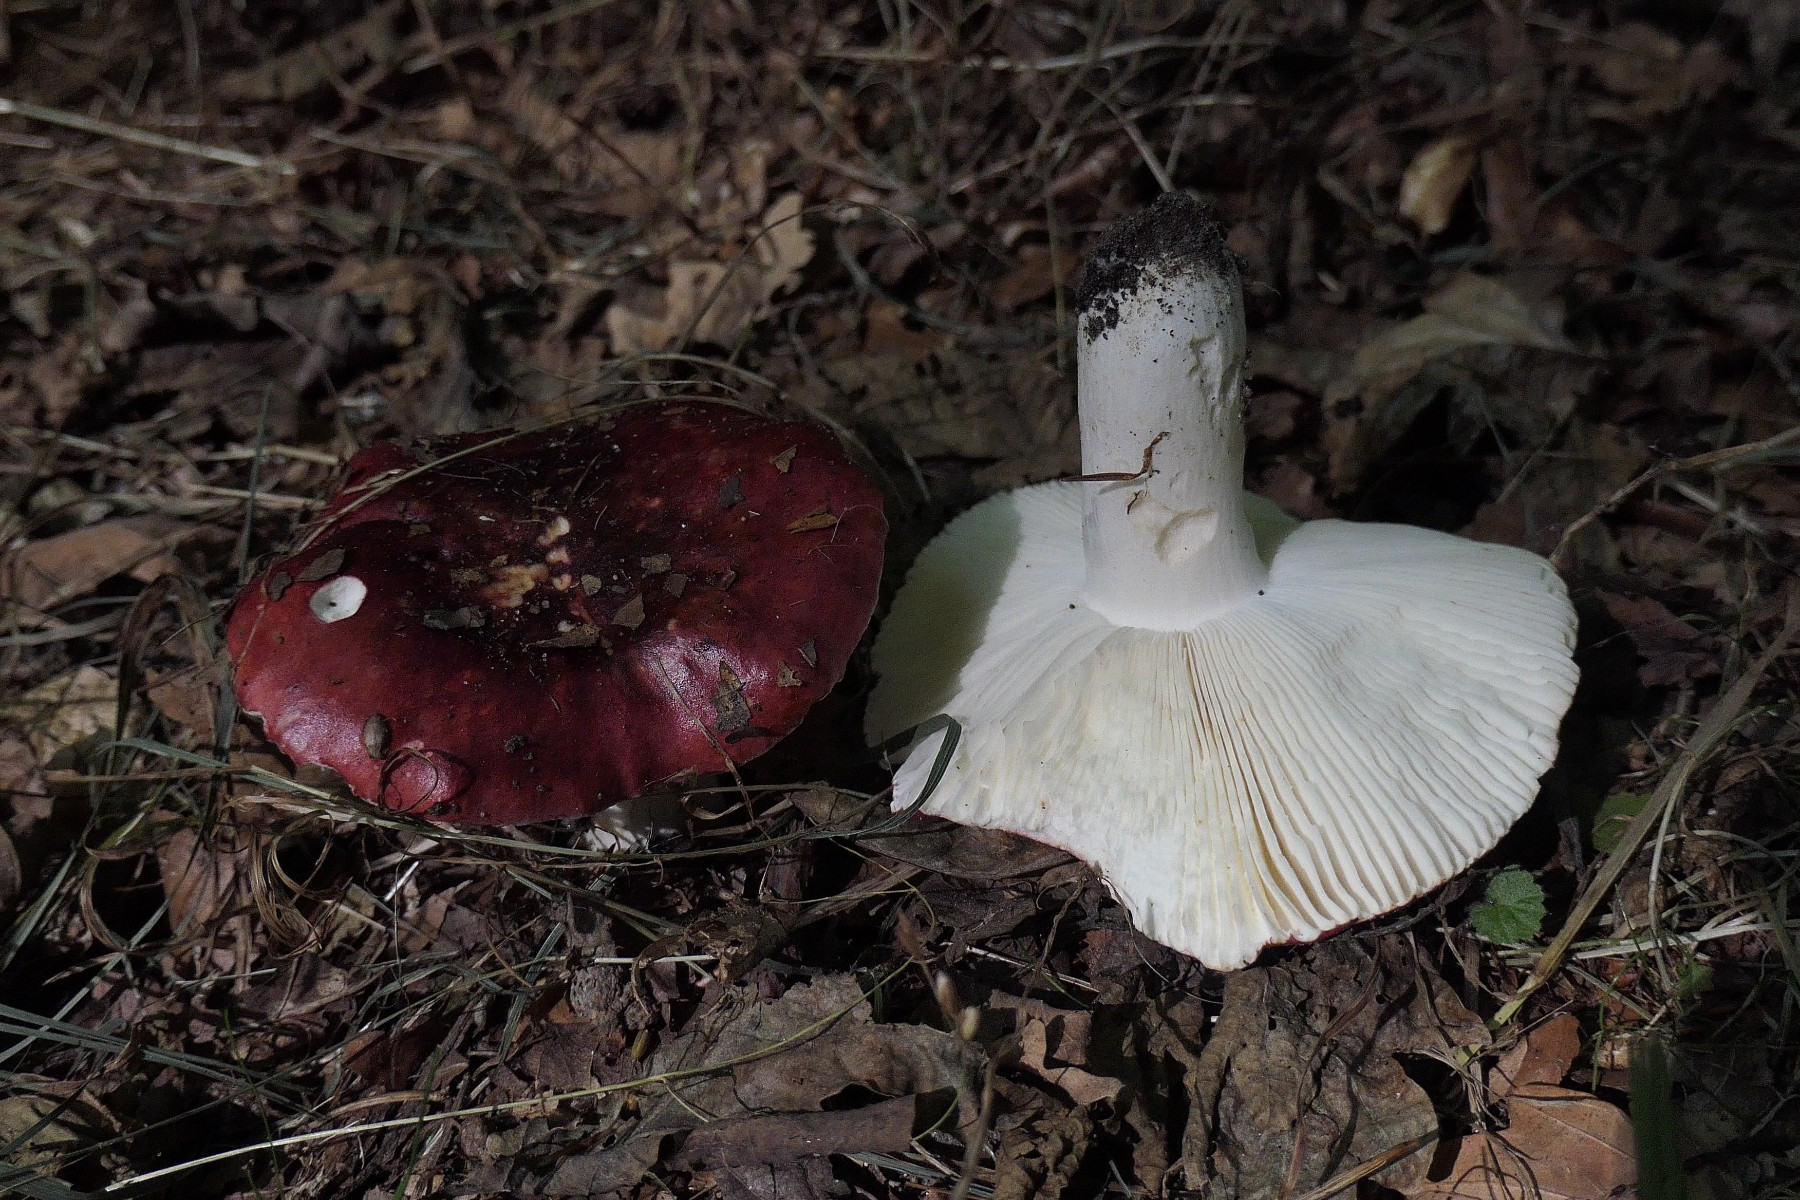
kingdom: Fungi
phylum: Basidiomycota
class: Agaricomycetes
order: Russulales
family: Russulaceae
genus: Russula
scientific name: Russula atropurpurea
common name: purpurbroget skørhat
